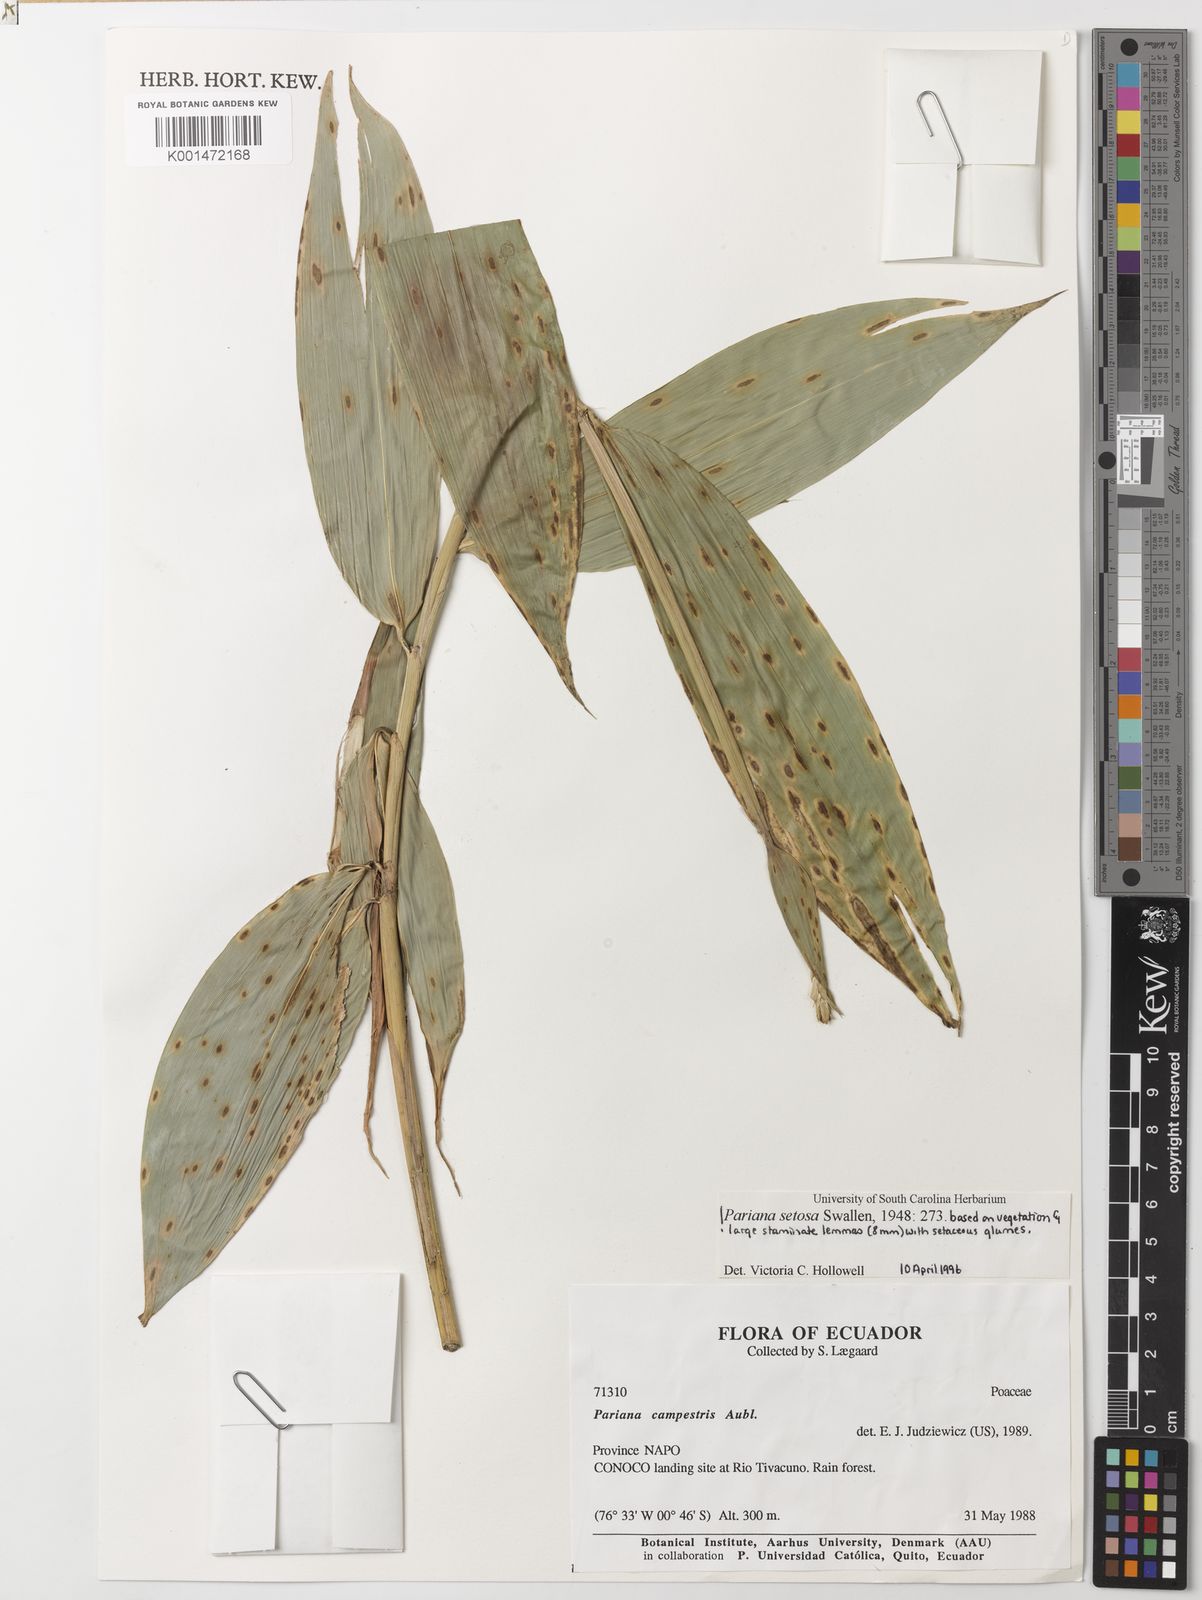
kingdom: Plantae
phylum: Tracheophyta
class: Liliopsida
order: Poales
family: Poaceae
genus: Pariana
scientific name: Pariana setosa
